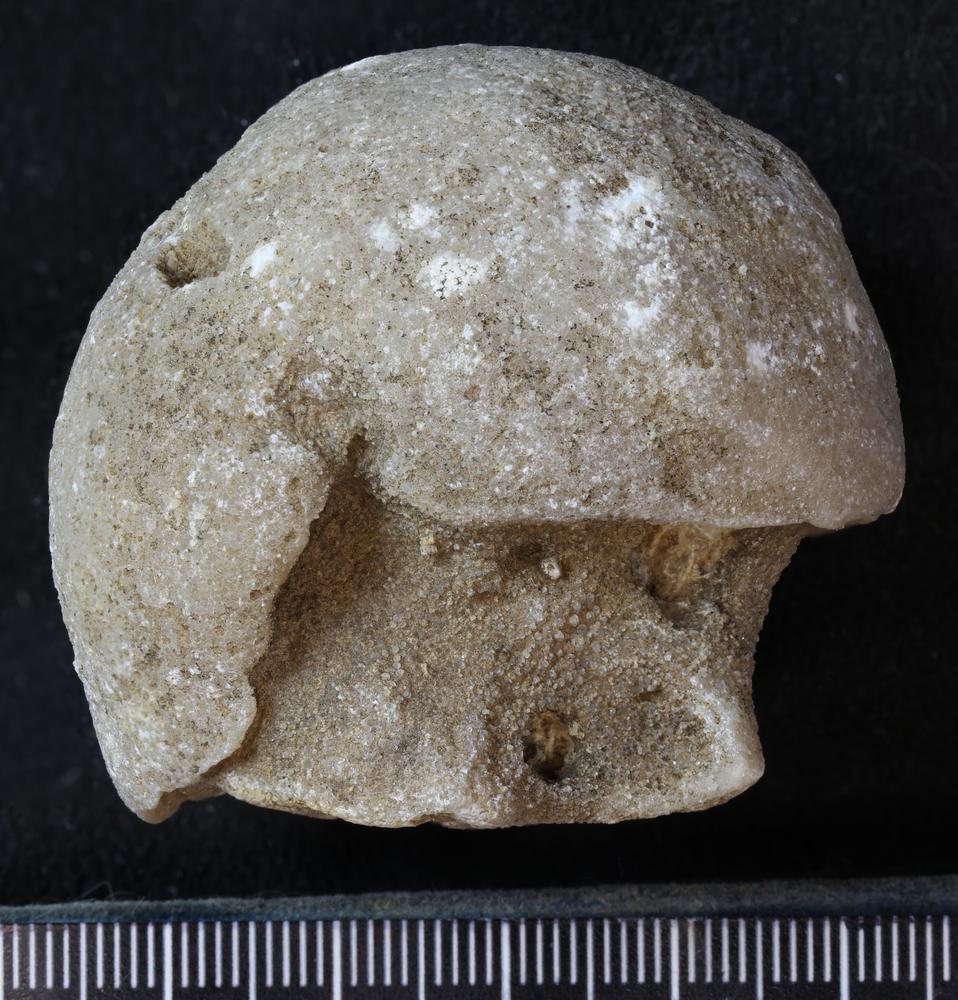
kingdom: Animalia
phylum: Bryozoa
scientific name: Bryozoa
